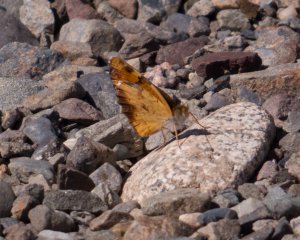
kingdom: Animalia
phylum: Arthropoda
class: Insecta
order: Lepidoptera
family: Nymphalidae
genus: Phyciodes
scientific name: Phyciodes
